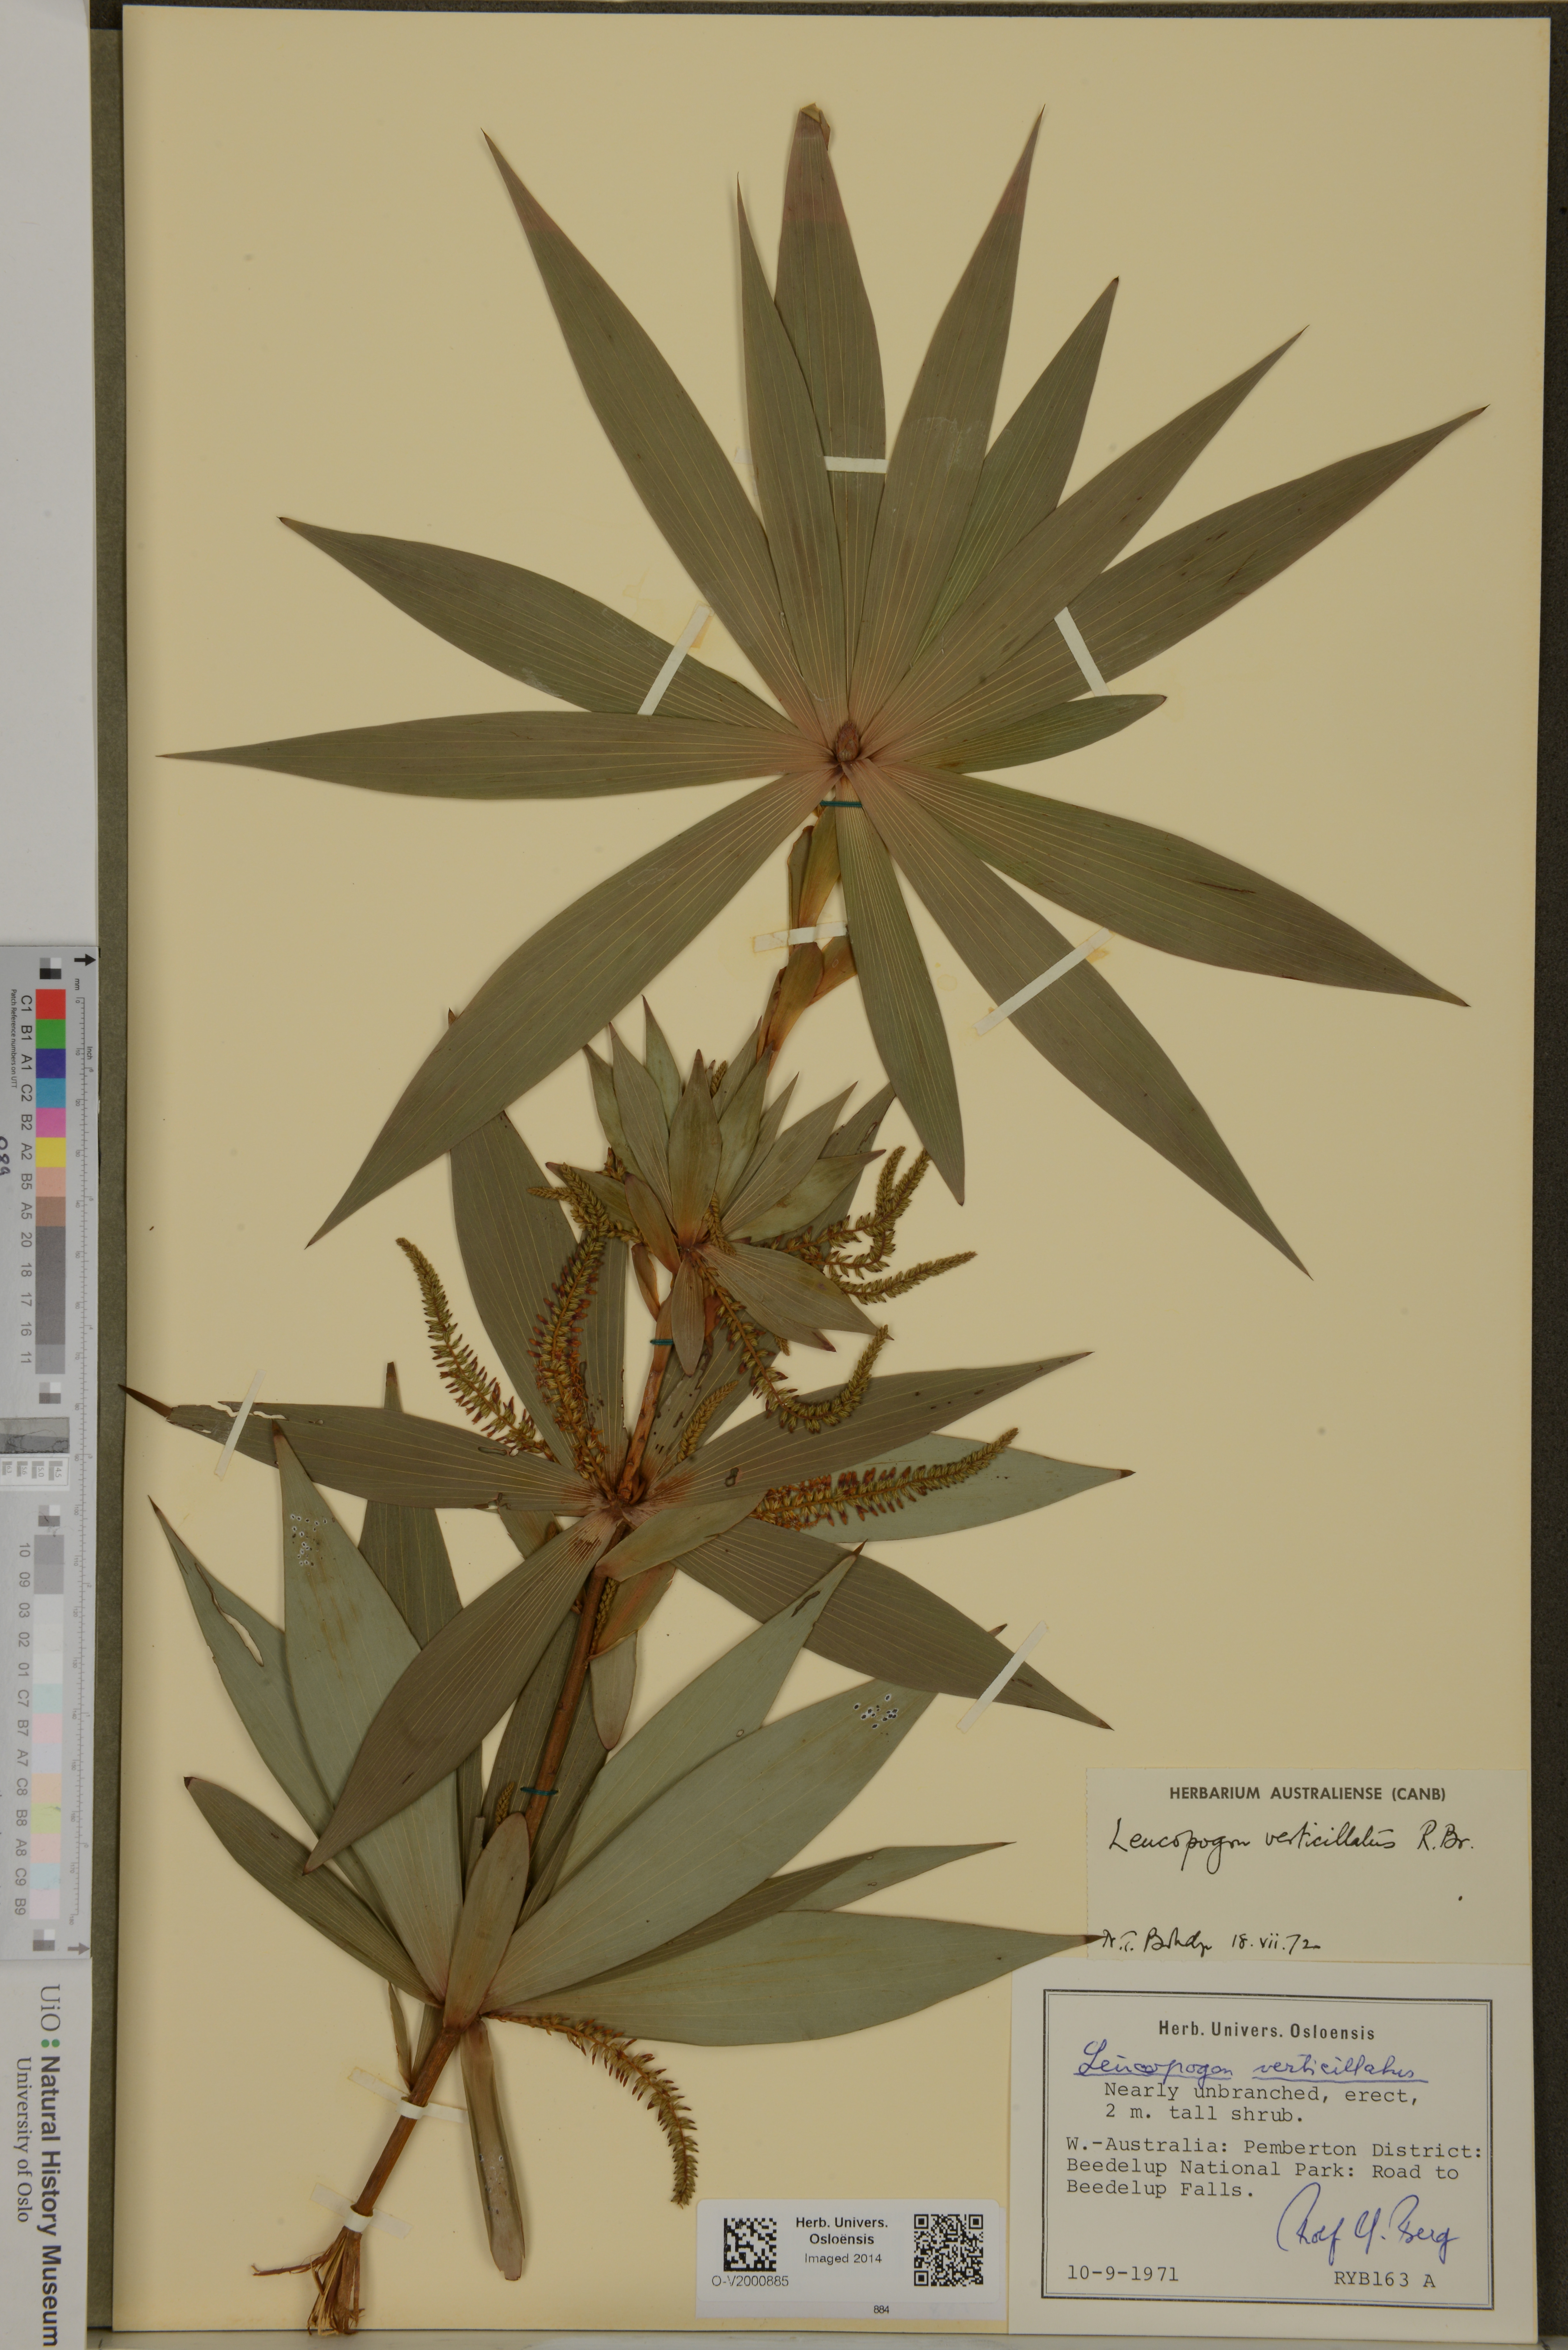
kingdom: Plantae
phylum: Tracheophyta
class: Magnoliopsida
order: Ericales
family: Ericaceae
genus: Leucopogon
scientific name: Leucopogon verticillatus
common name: Tasselshrub
